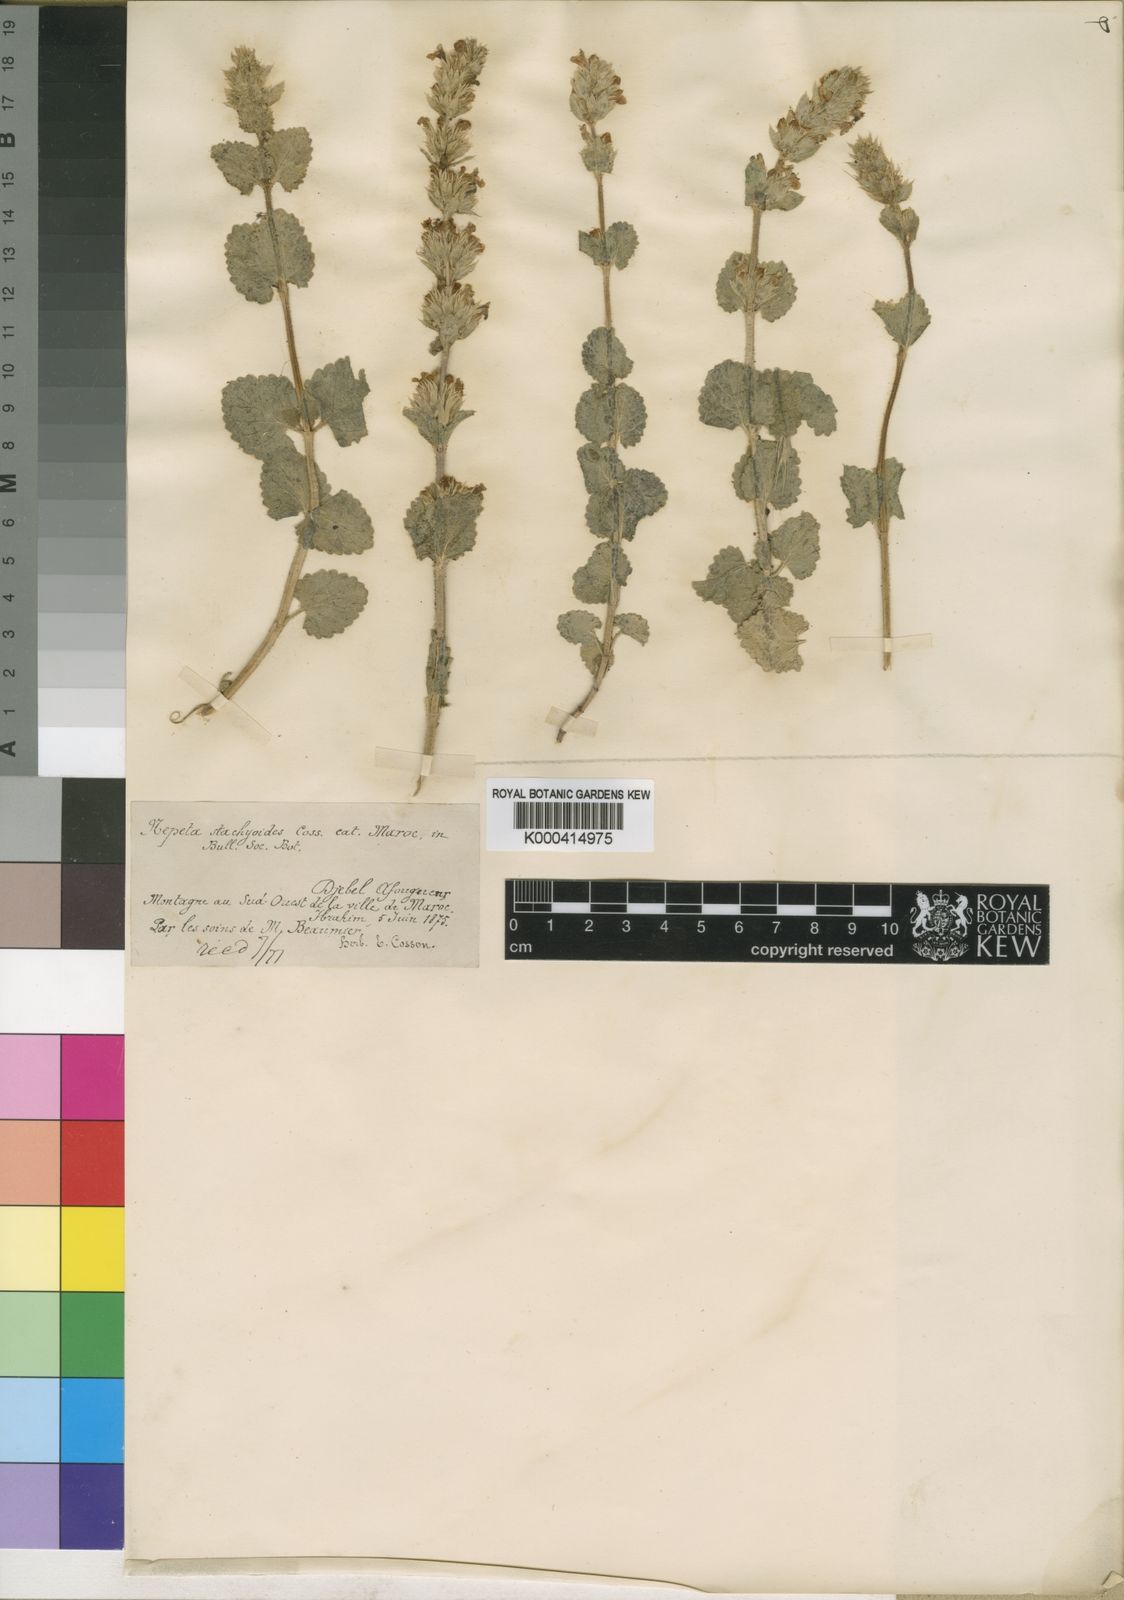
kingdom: Plantae
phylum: Tracheophyta
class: Magnoliopsida
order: Lamiales
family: Lamiaceae
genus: Nepeta
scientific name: Nepeta
